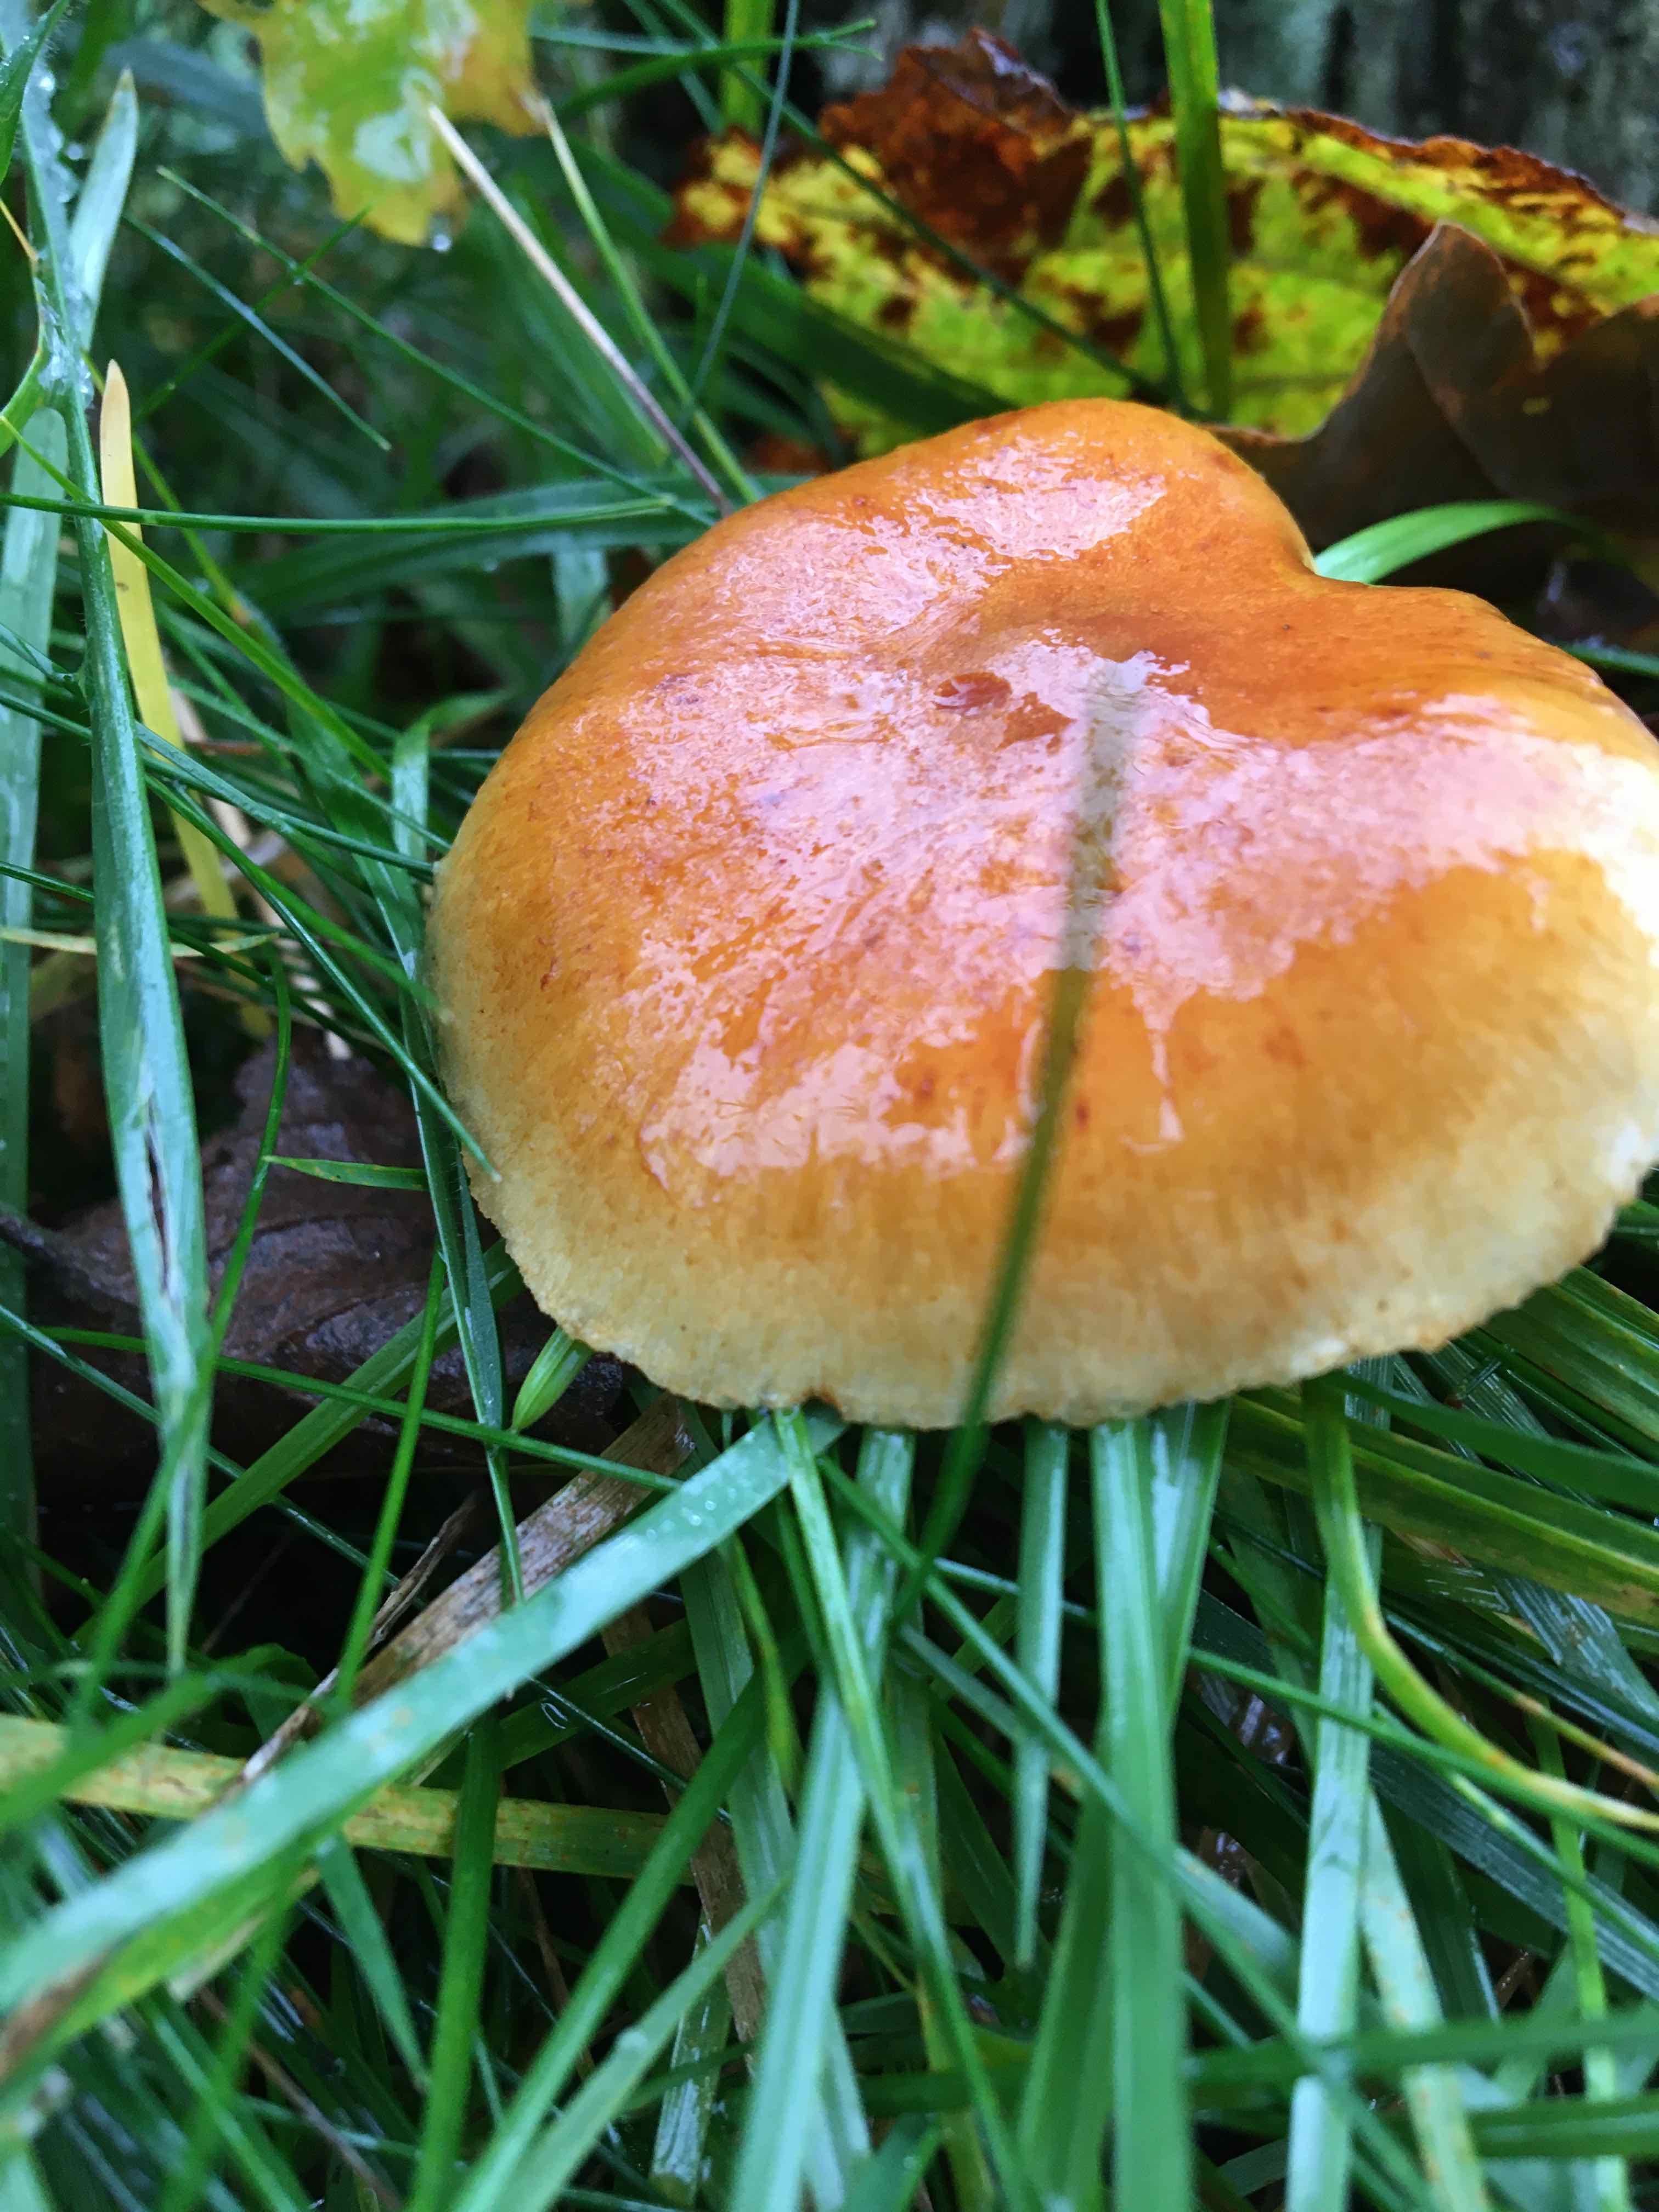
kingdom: Fungi
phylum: Basidiomycota
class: Agaricomycetes
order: Agaricales
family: Hymenogastraceae
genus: Gymnopilus
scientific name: Gymnopilus penetrans
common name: plettet flammehat
